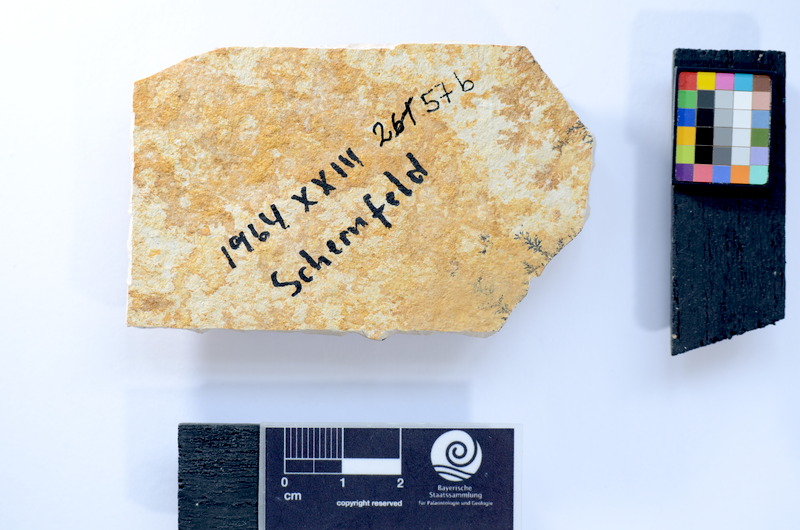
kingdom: Animalia
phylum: Chordata
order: Salmoniformes
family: Orthogonikleithridae
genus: Leptolepides
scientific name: Leptolepides
